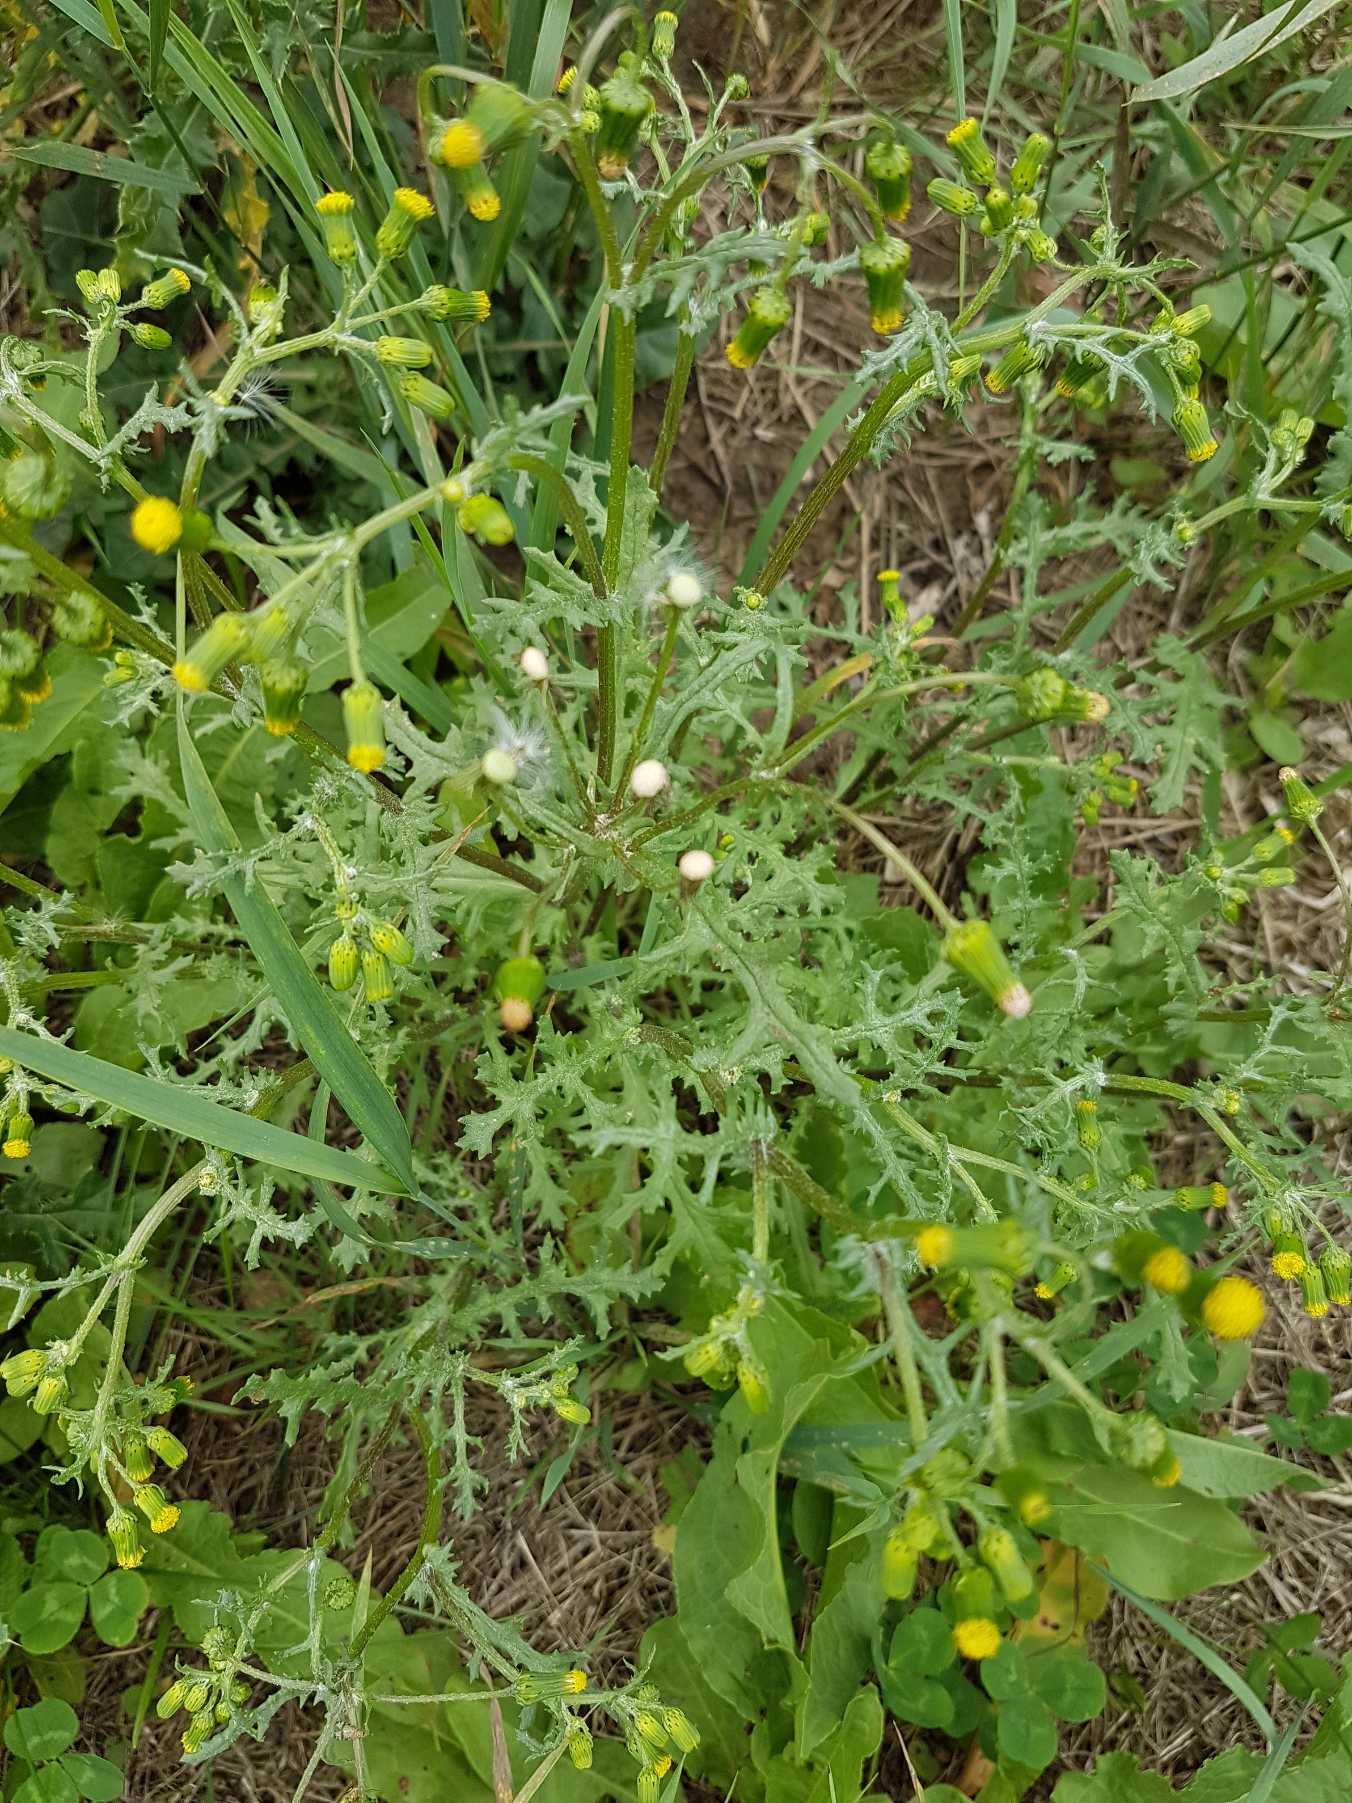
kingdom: Plantae
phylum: Tracheophyta
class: Magnoliopsida
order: Asterales
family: Asteraceae
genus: Senecio
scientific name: Senecio vulgaris
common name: Almindelig brandbæger
